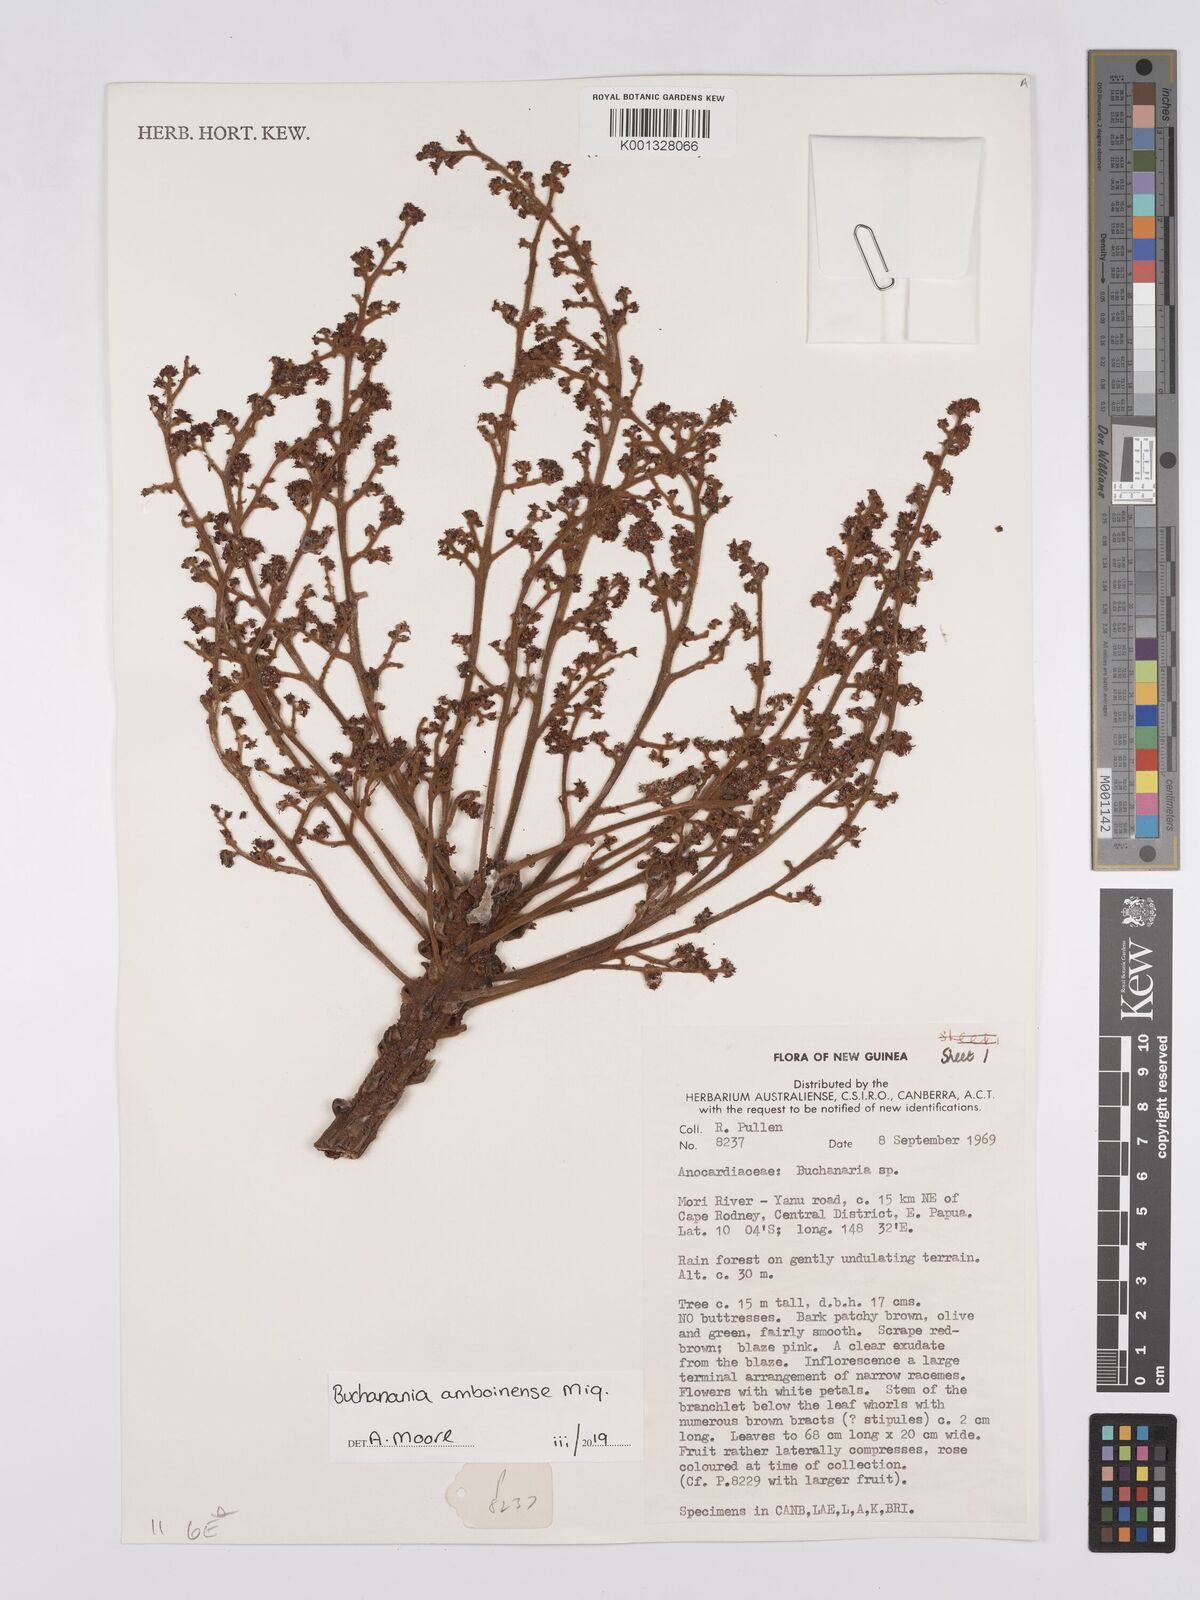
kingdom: Plantae
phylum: Tracheophyta
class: Magnoliopsida
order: Sapindales
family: Anacardiaceae
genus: Buchanania
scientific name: Buchanania
